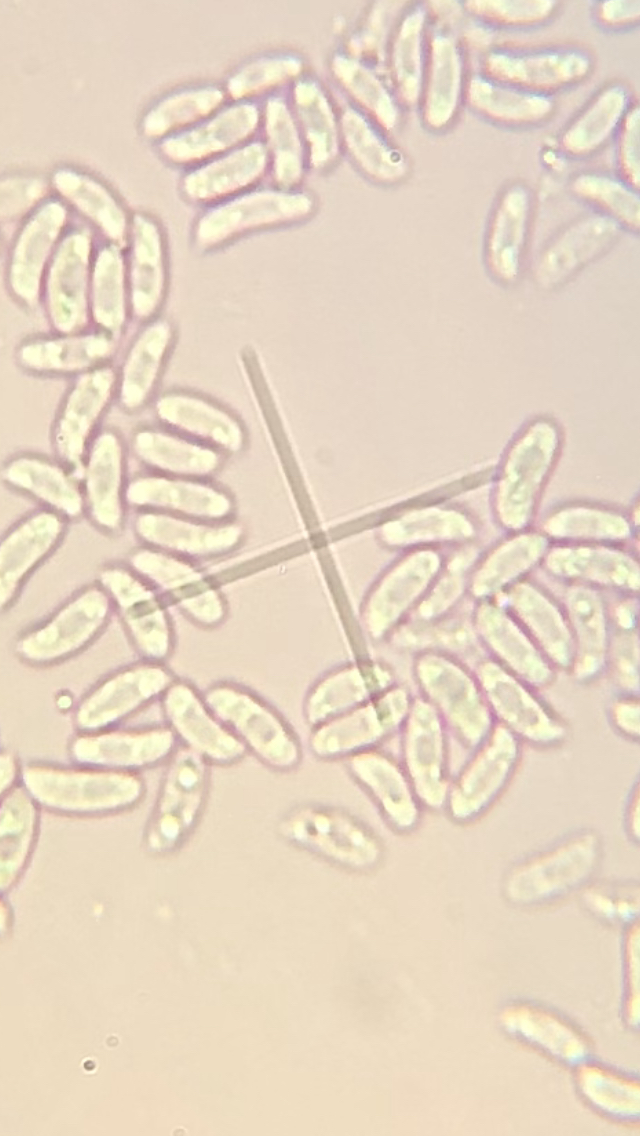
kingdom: Fungi
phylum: Basidiomycota
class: Agaricomycetes
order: Polyporales
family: Polyporaceae
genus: Lentinus
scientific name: Lentinus brumalis
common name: vinter-stilkporesvamp
